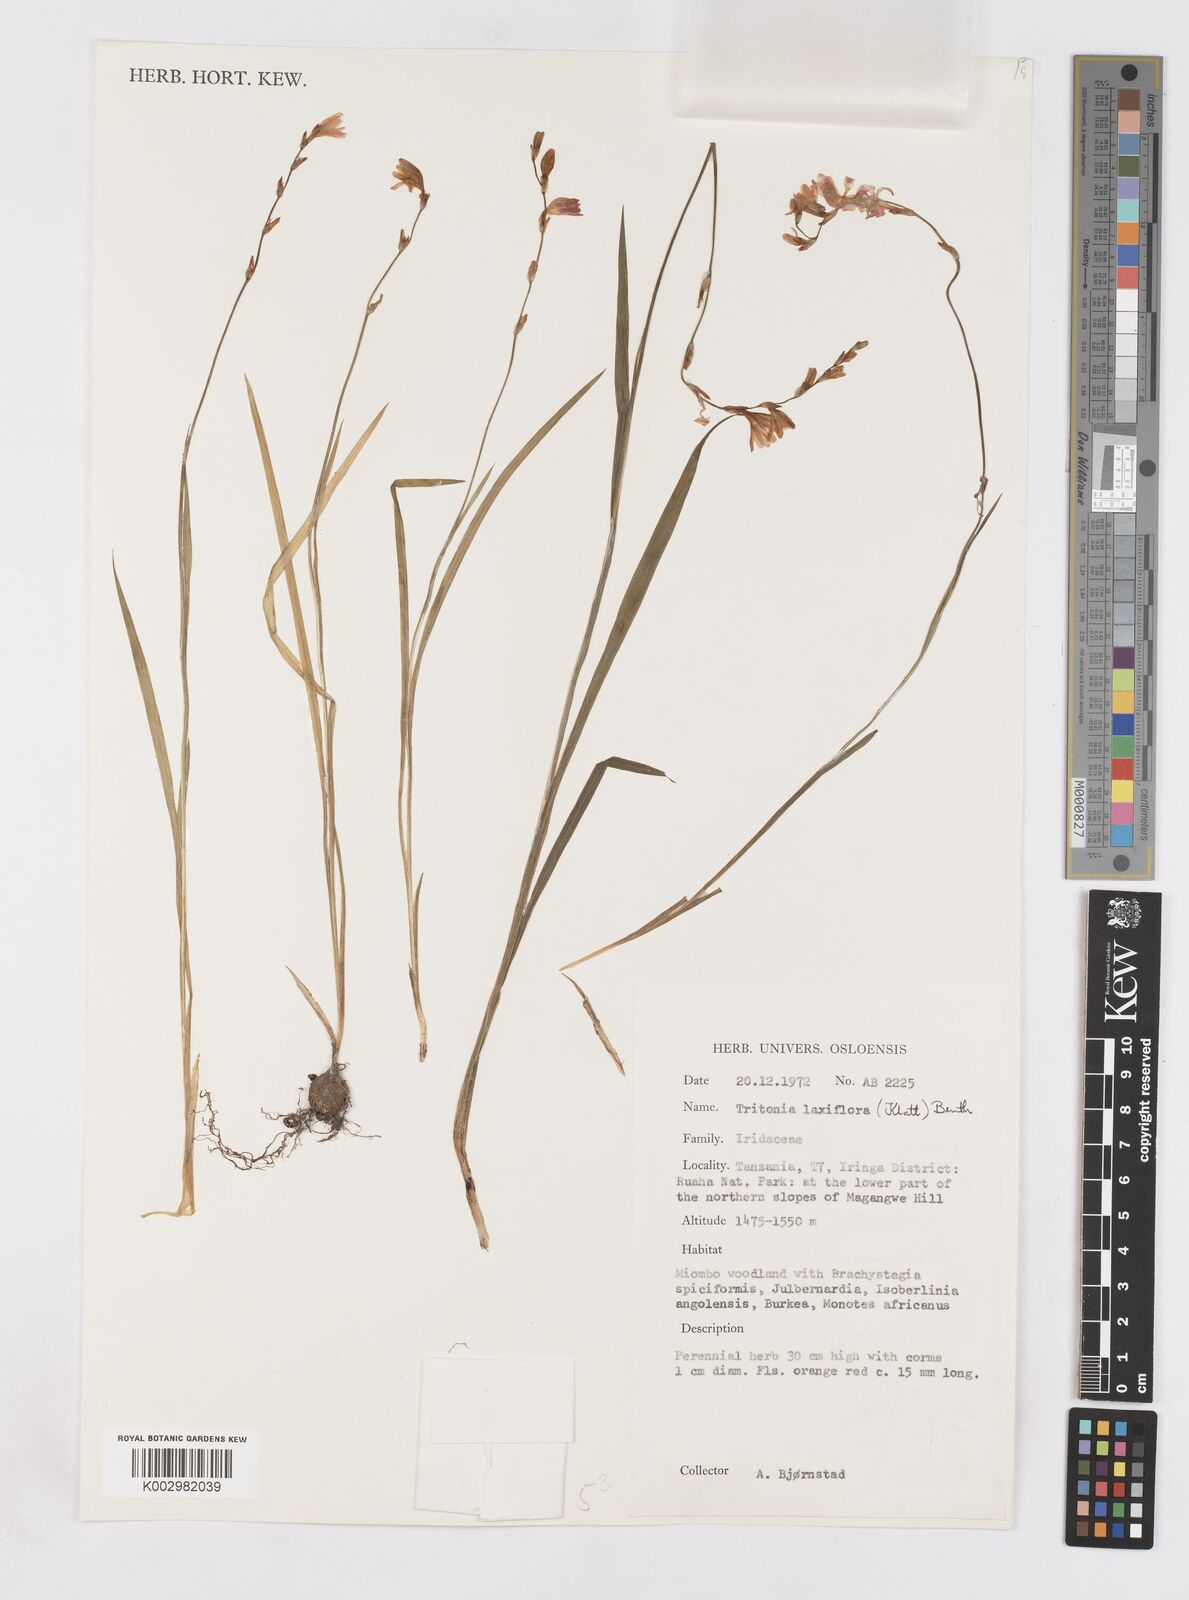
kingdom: Plantae
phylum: Tracheophyta
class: Liliopsida
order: Asparagales
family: Iridaceae
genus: Tritonia
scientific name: Tritonia laxifolia
